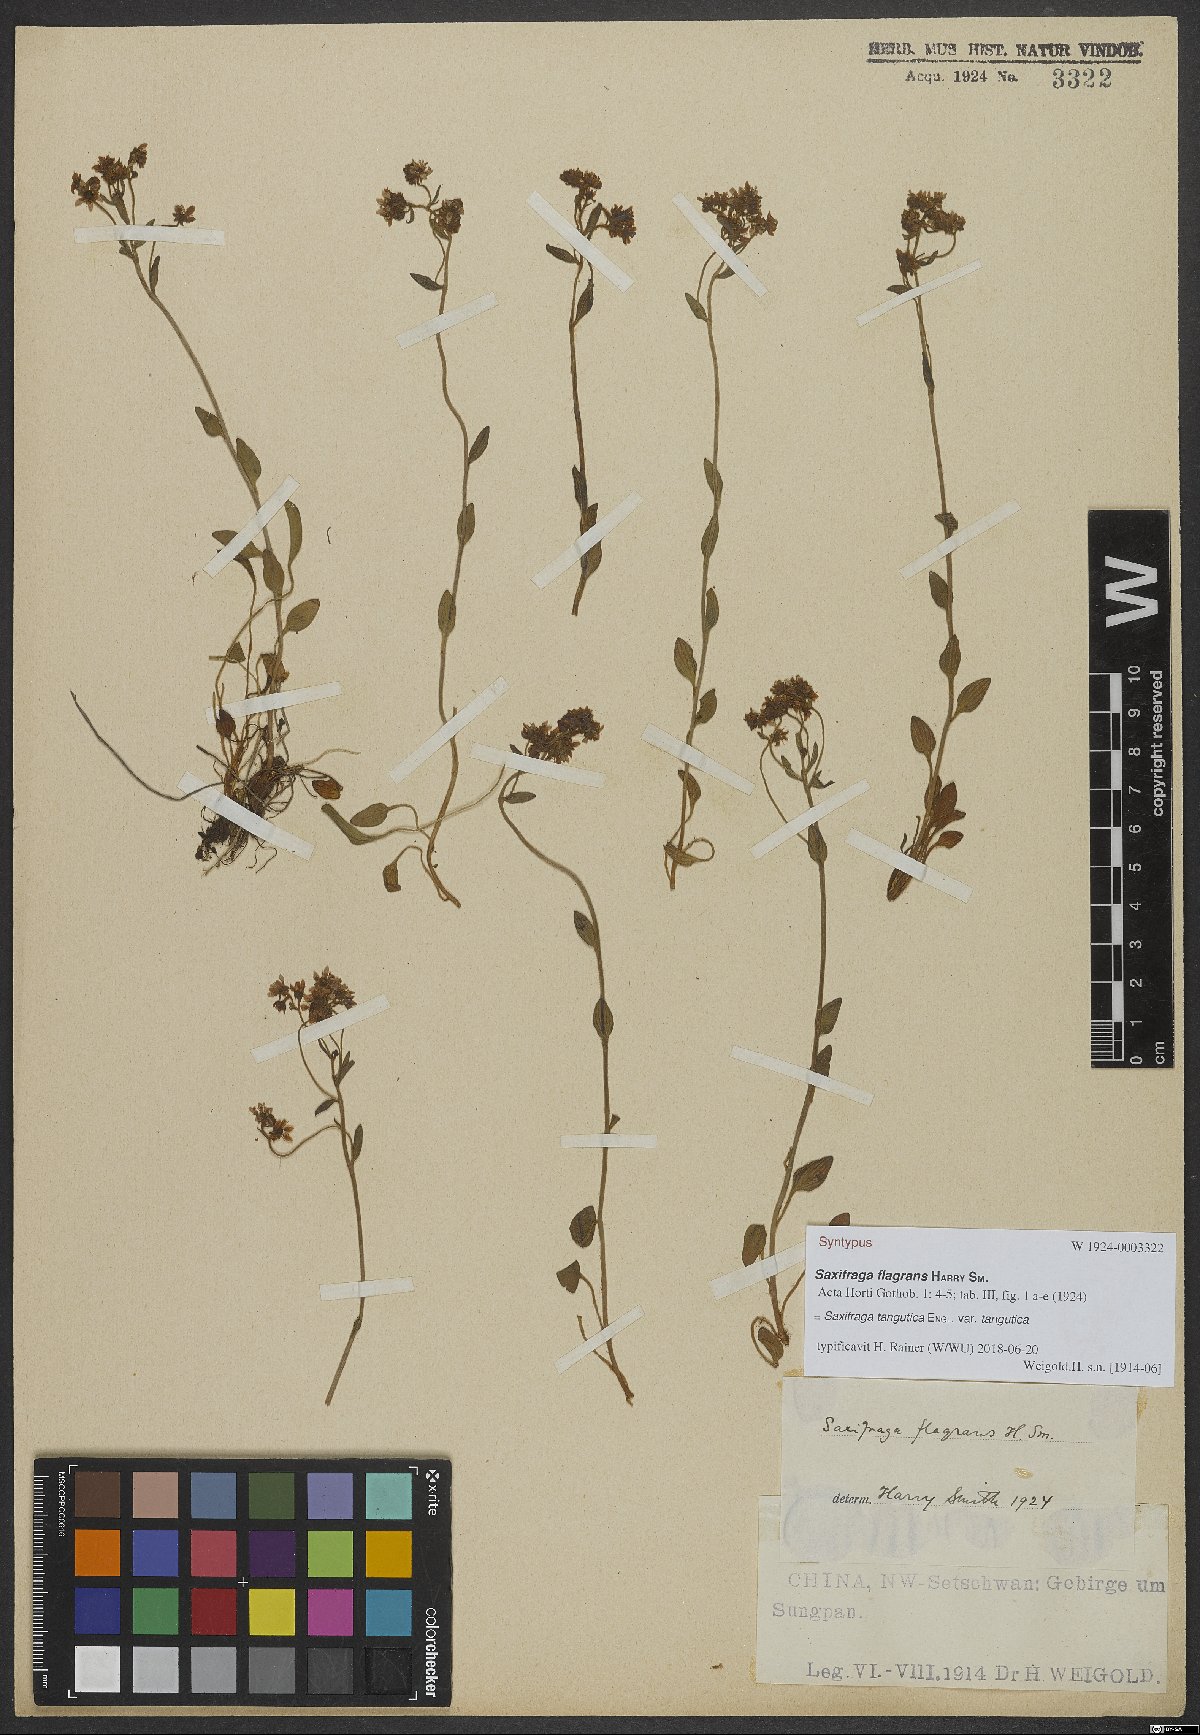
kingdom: Plantae
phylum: Tracheophyta
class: Magnoliopsida
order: Saxifragales
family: Saxifragaceae
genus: Saxifraga
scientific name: Saxifraga tangutica
